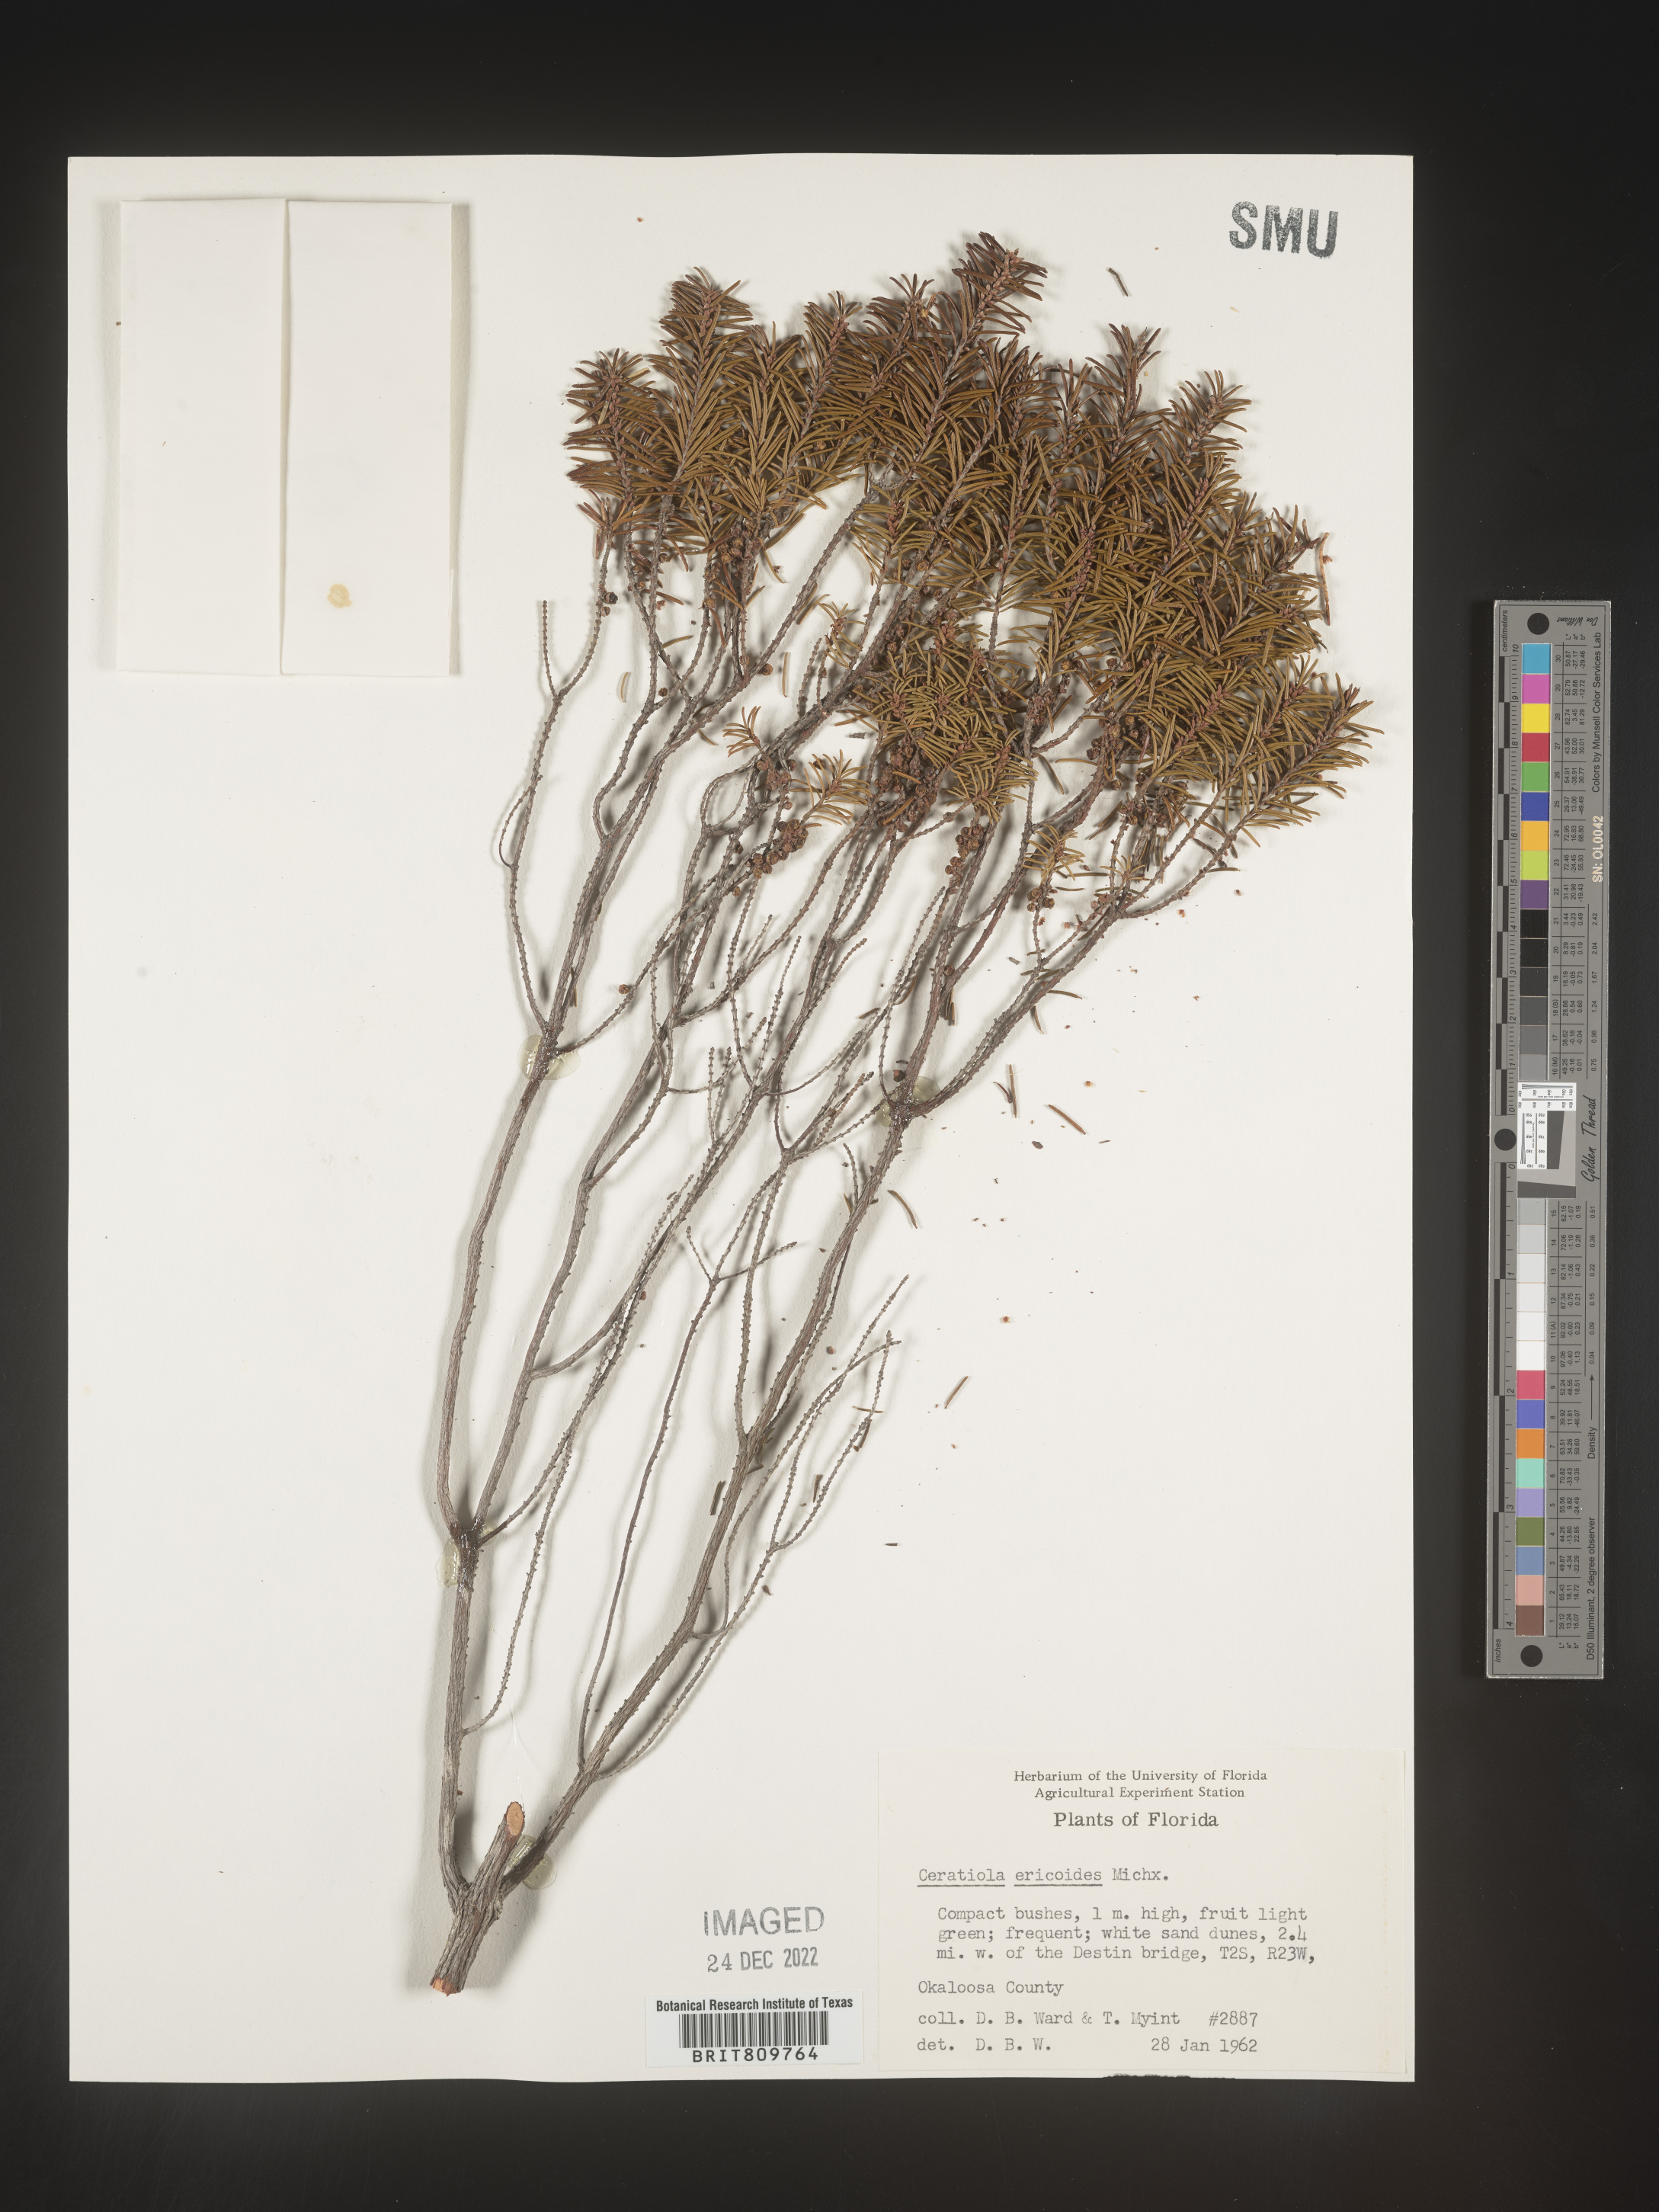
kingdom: Plantae
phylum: Tracheophyta
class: Magnoliopsida
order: Ericales
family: Ericaceae
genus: Ceratiola
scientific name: Ceratiola ericoides
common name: Sandhill-rosemary
